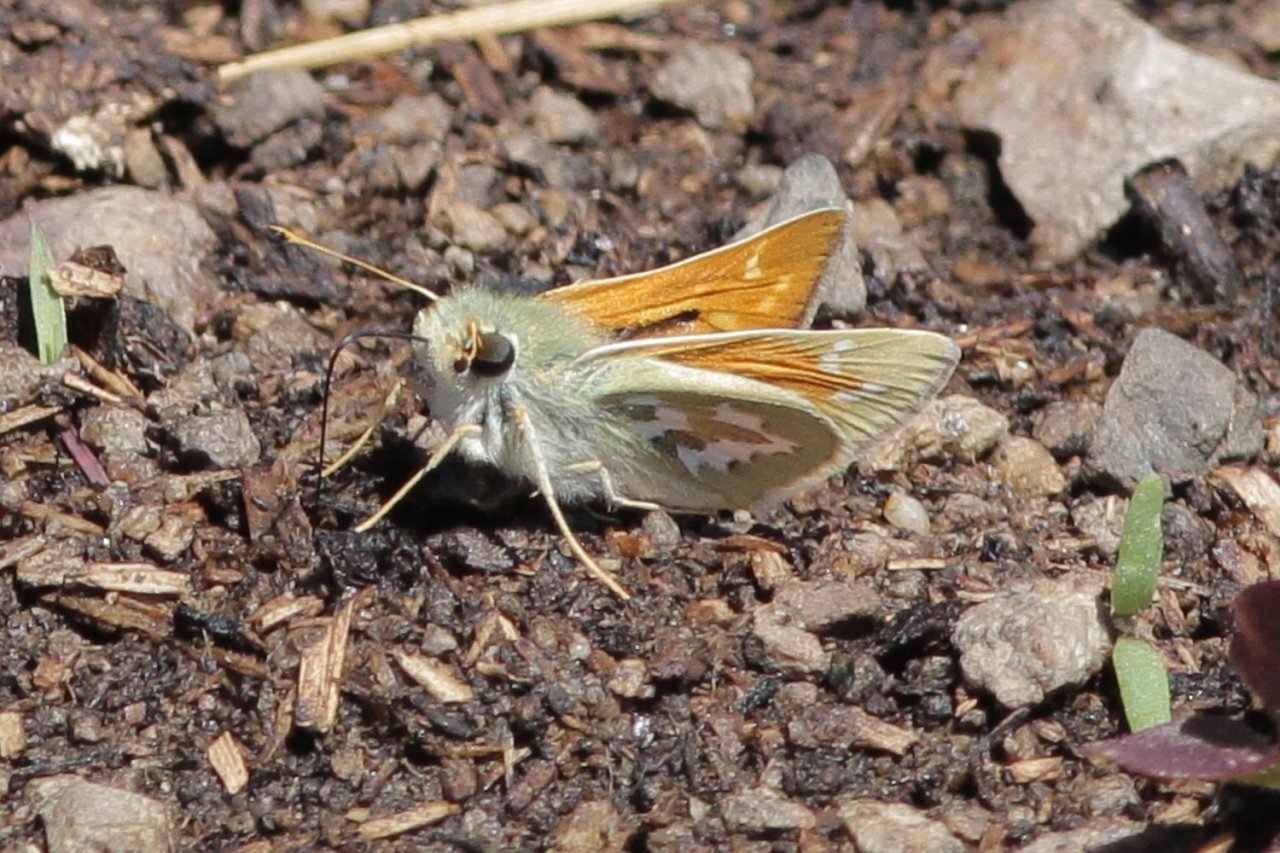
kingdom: Animalia
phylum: Arthropoda
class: Insecta
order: Lepidoptera
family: Hesperiidae
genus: Hesperia
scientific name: Hesperia comma
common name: Western Branded Skipper
